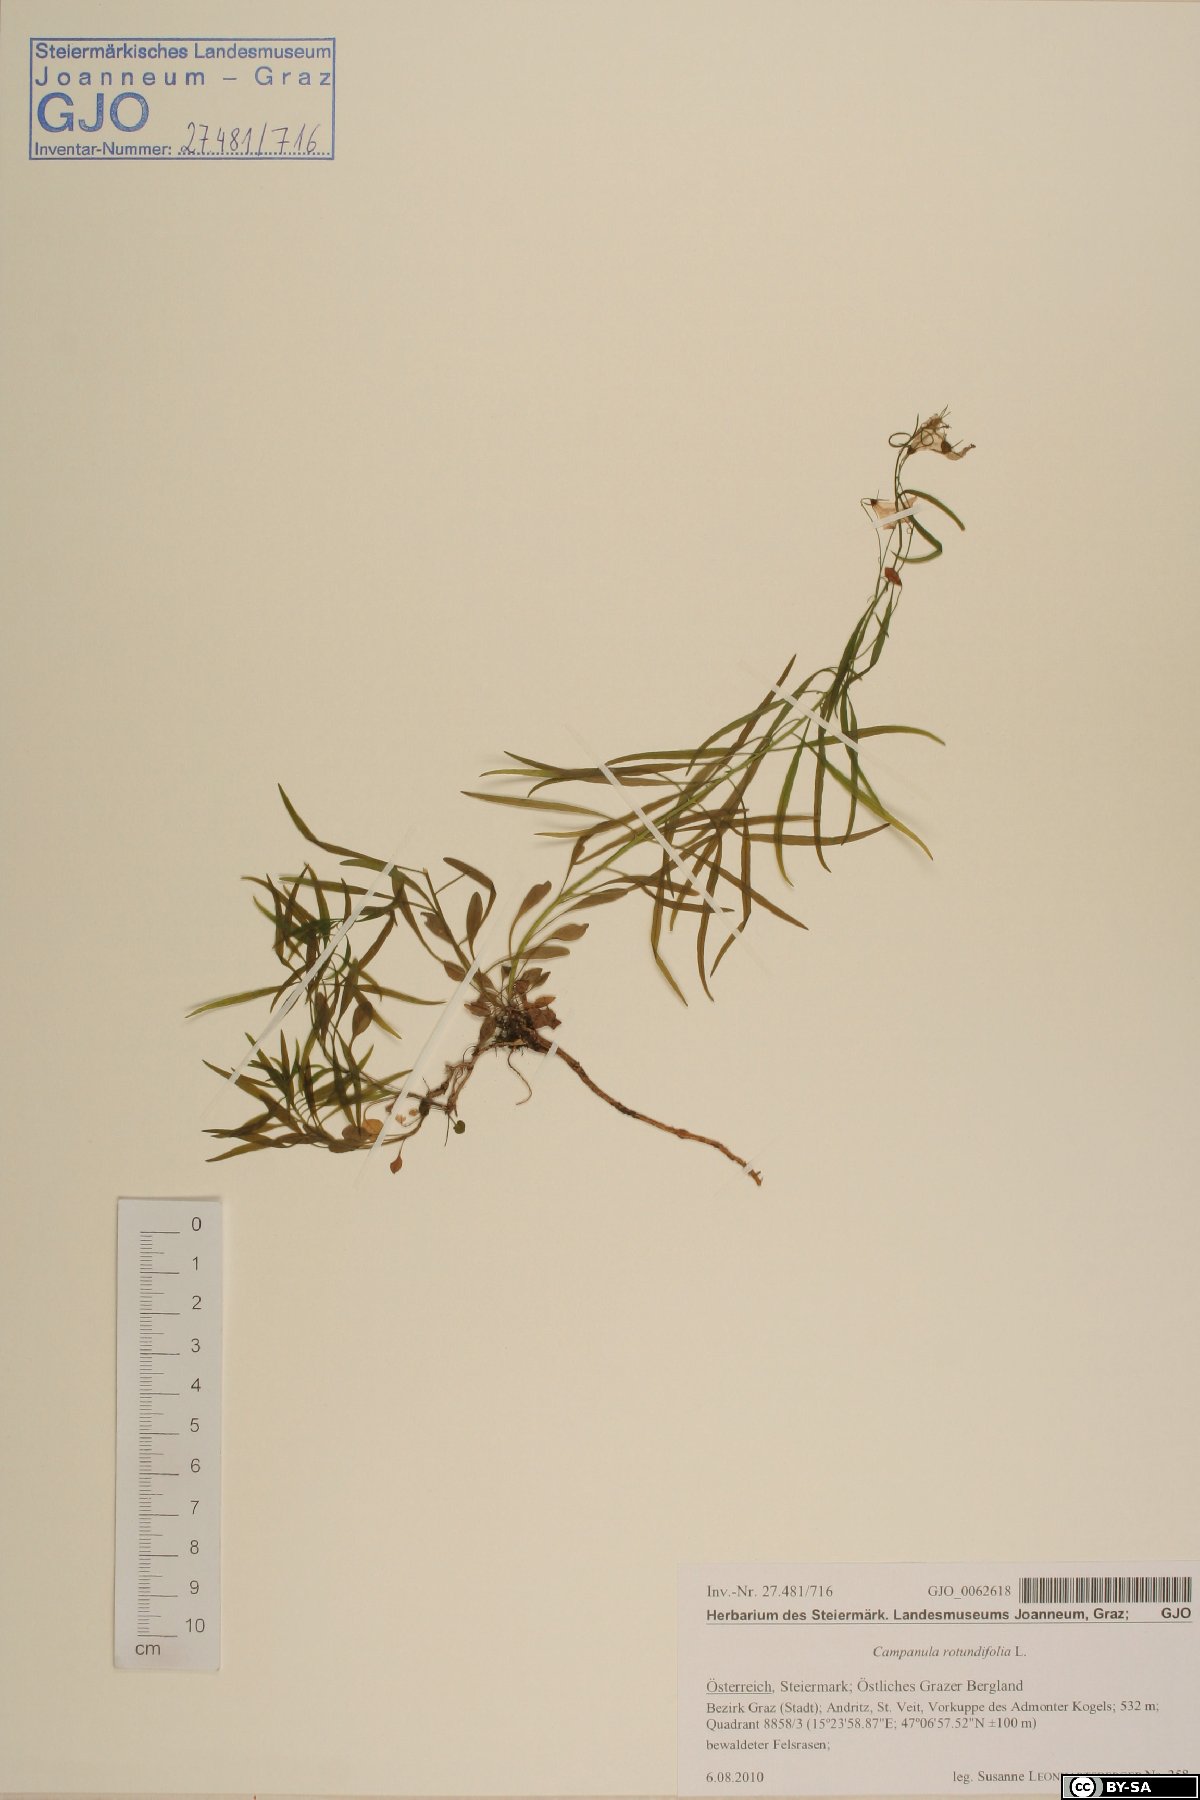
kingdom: Plantae
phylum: Tracheophyta
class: Magnoliopsida
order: Asterales
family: Campanulaceae
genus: Campanula
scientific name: Campanula rotundifolia
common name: Harebell
